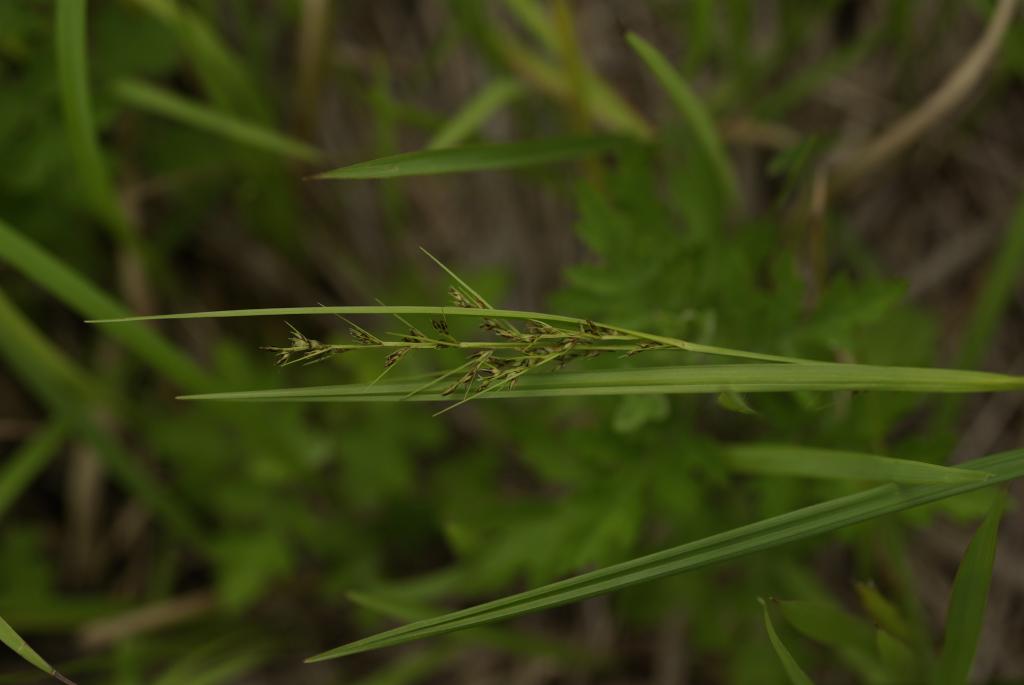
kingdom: Plantae
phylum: Tracheophyta
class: Liliopsida
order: Poales
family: Cyperaceae
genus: Scleria
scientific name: Scleria levis
